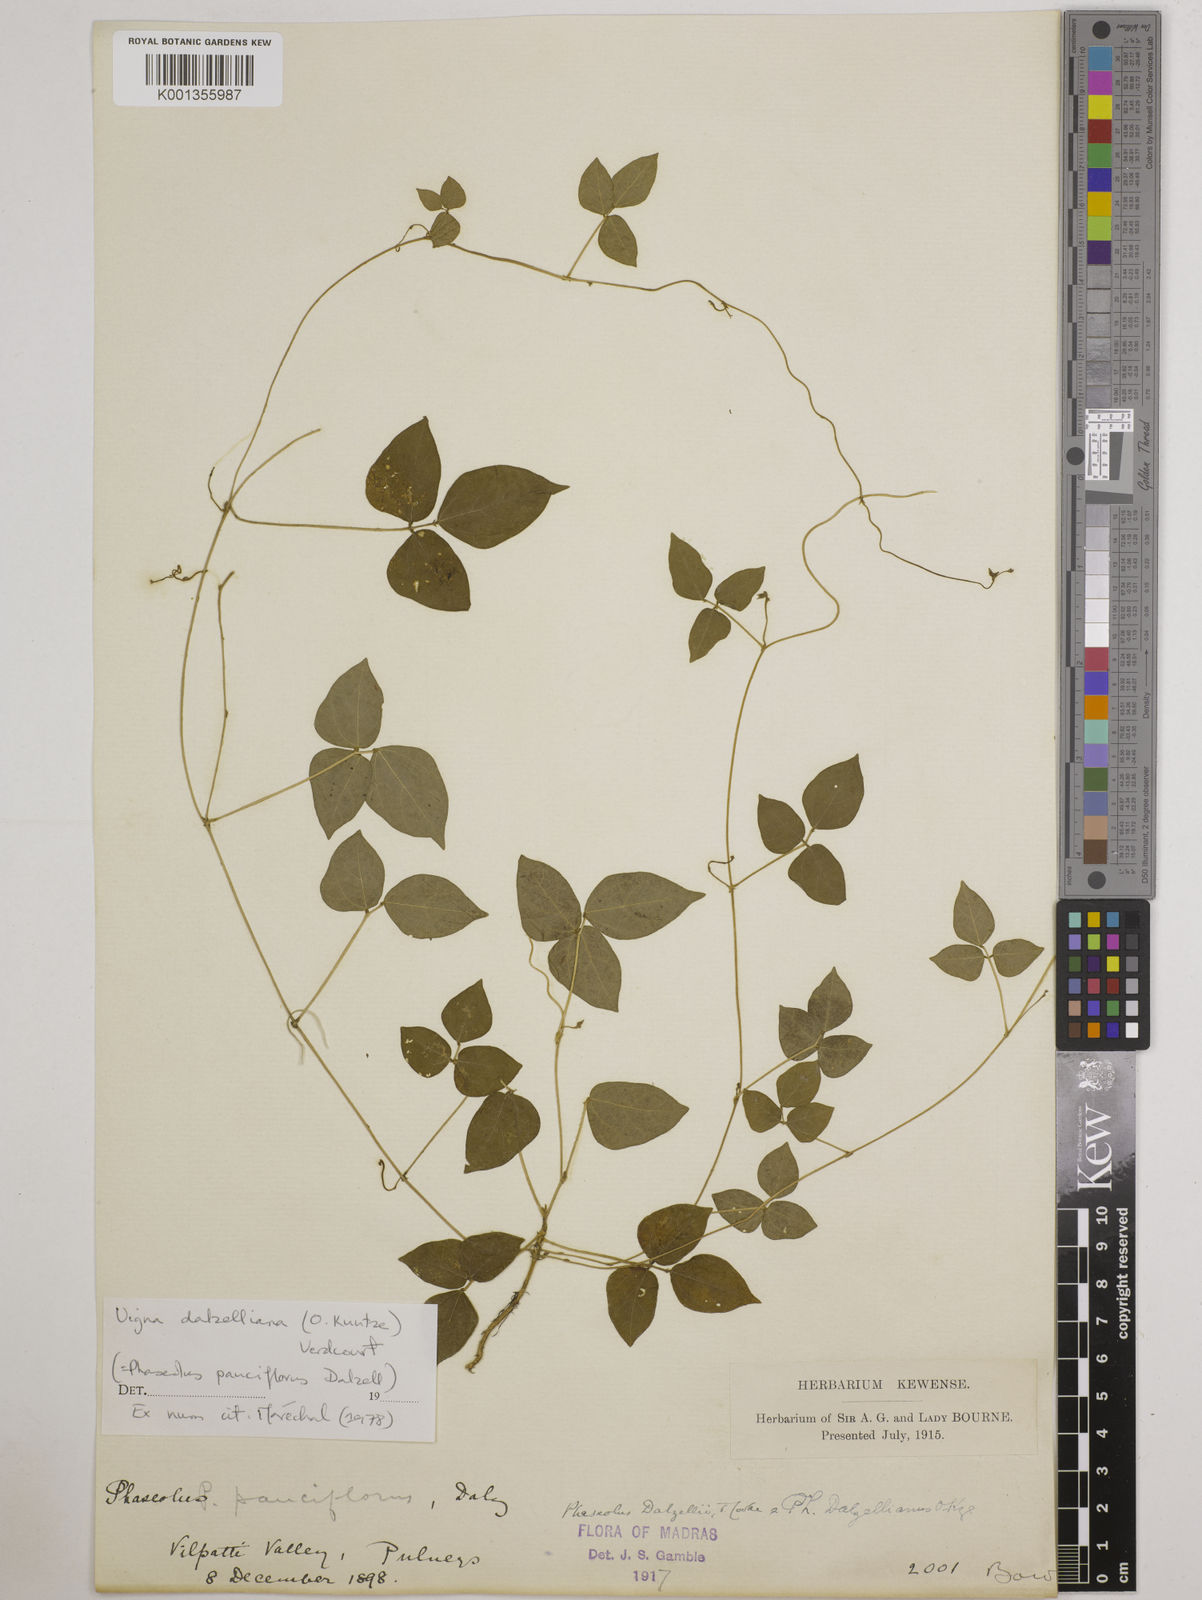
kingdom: Plantae
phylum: Tracheophyta
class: Magnoliopsida
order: Fabales
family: Fabaceae
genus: Vigna
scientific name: Vigna dalzelliana
